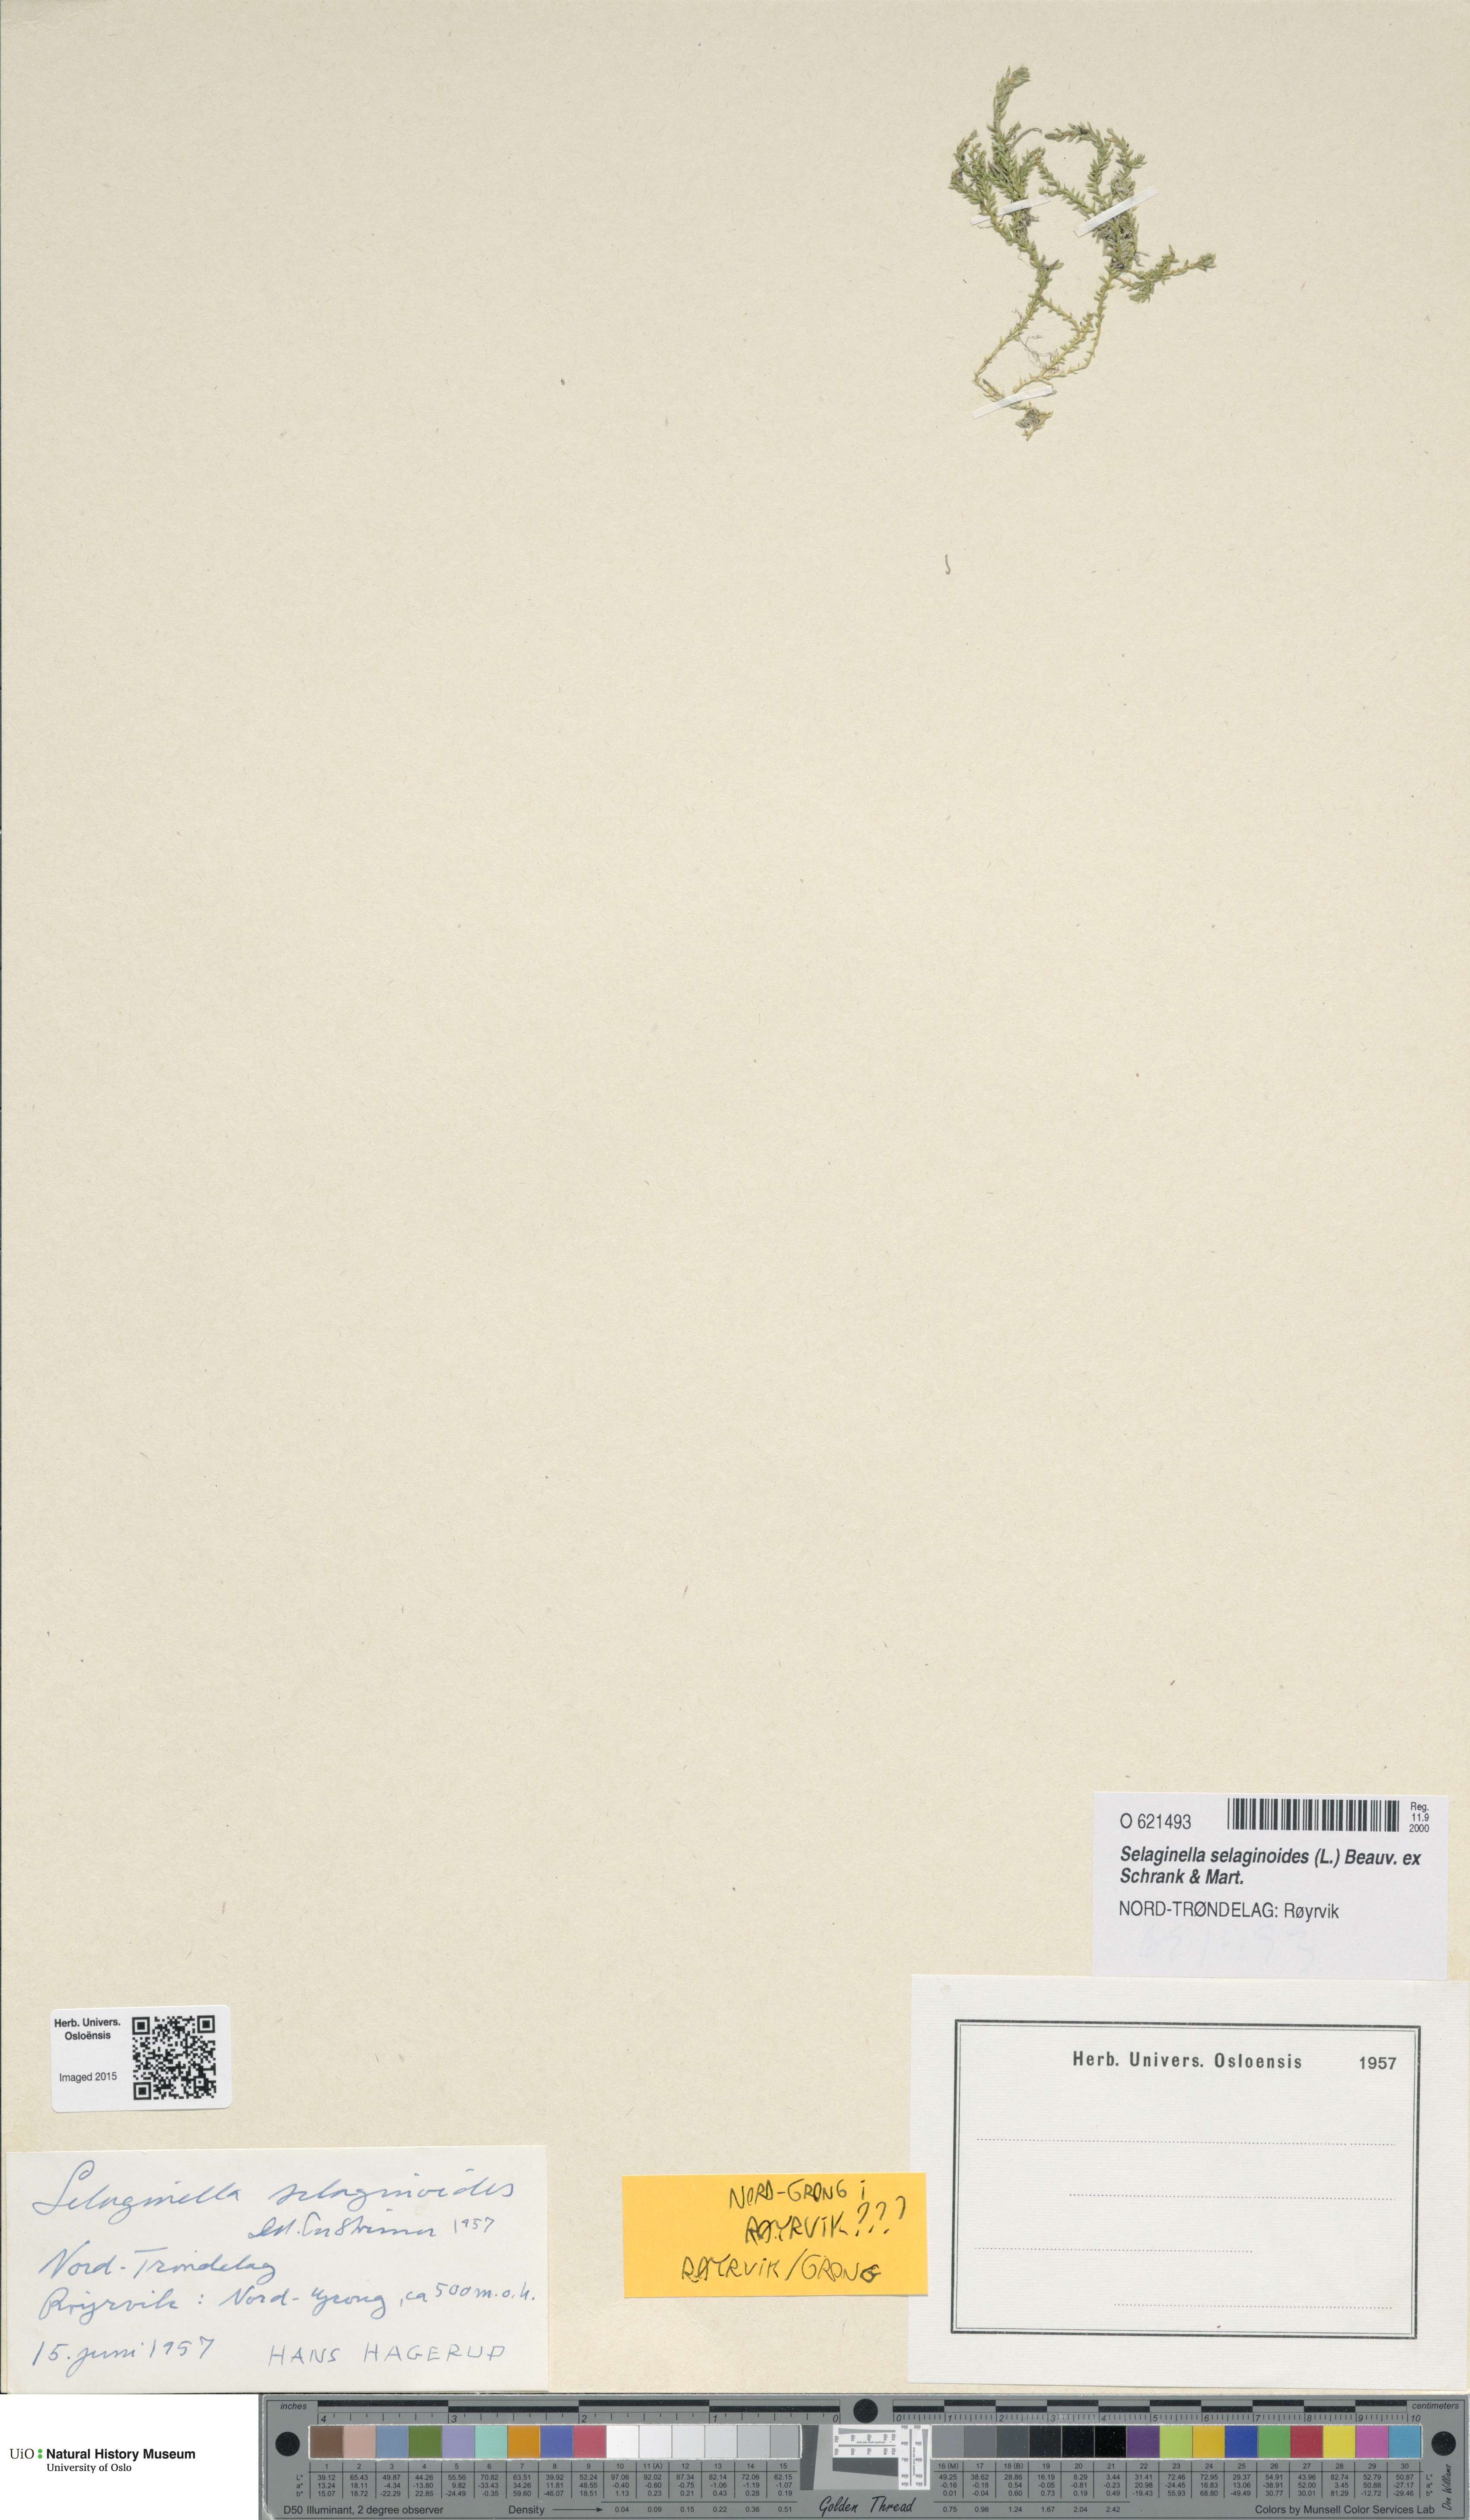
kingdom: Plantae
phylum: Tracheophyta
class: Lycopodiopsida
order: Selaginellales
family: Selaginellaceae
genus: Selaginella
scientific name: Selaginella selaginoides
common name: Prickly mountain-moss
